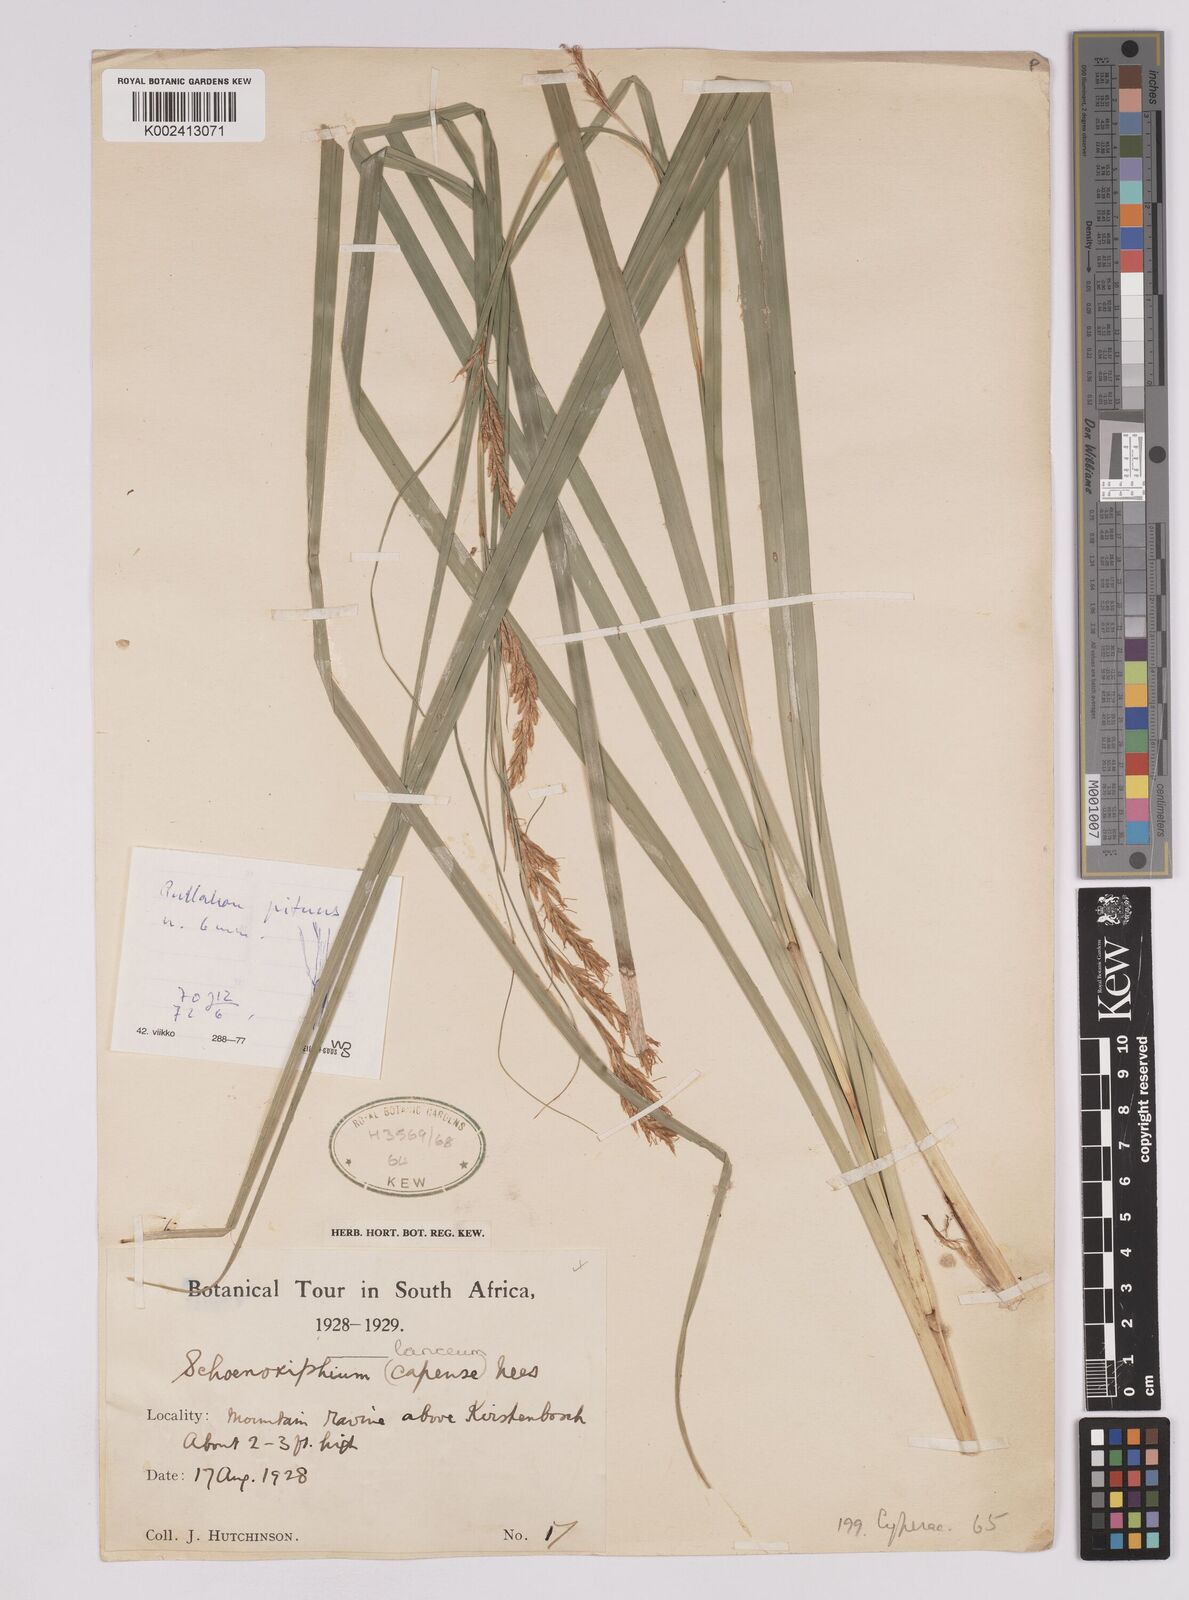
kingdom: Plantae
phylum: Tracheophyta
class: Liliopsida
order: Poales
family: Cyperaceae
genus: Carex
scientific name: Carex lancea
